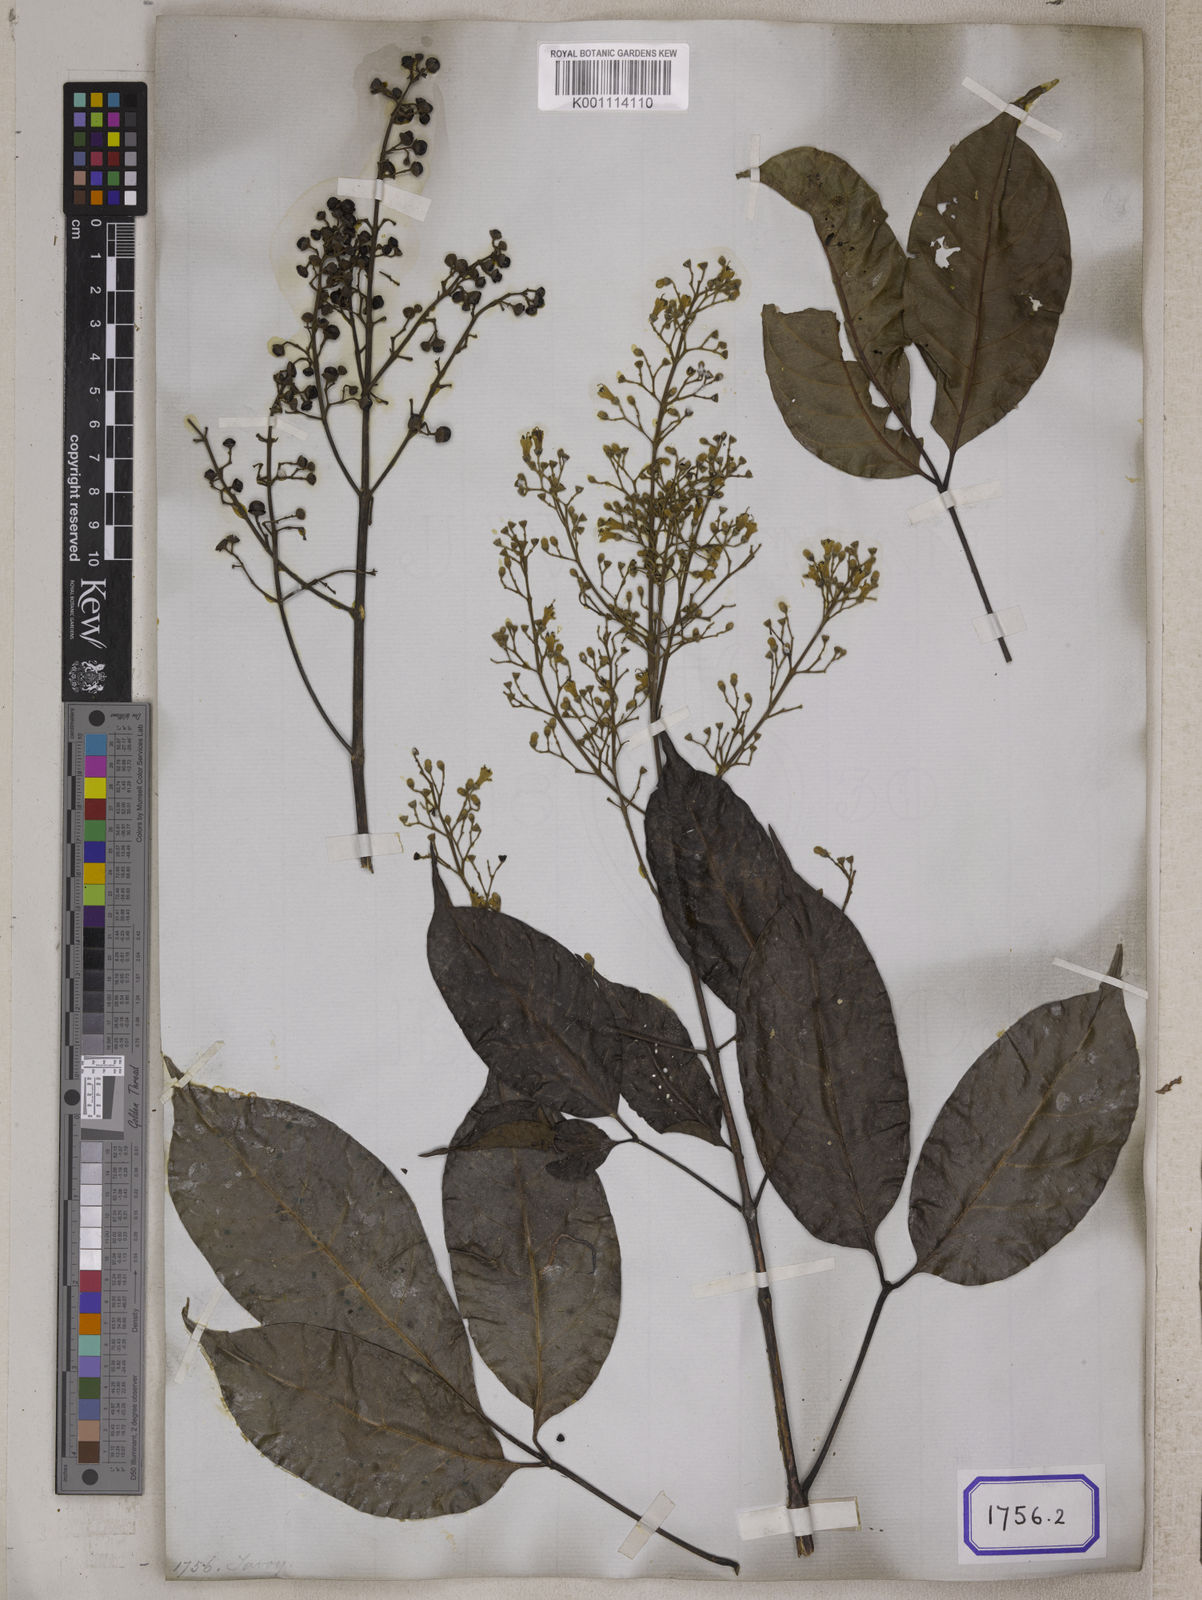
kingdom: Plantae
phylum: Tracheophyta
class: Magnoliopsida
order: Lamiales
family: Lamiaceae
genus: Vitex
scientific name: Vitex quinata
